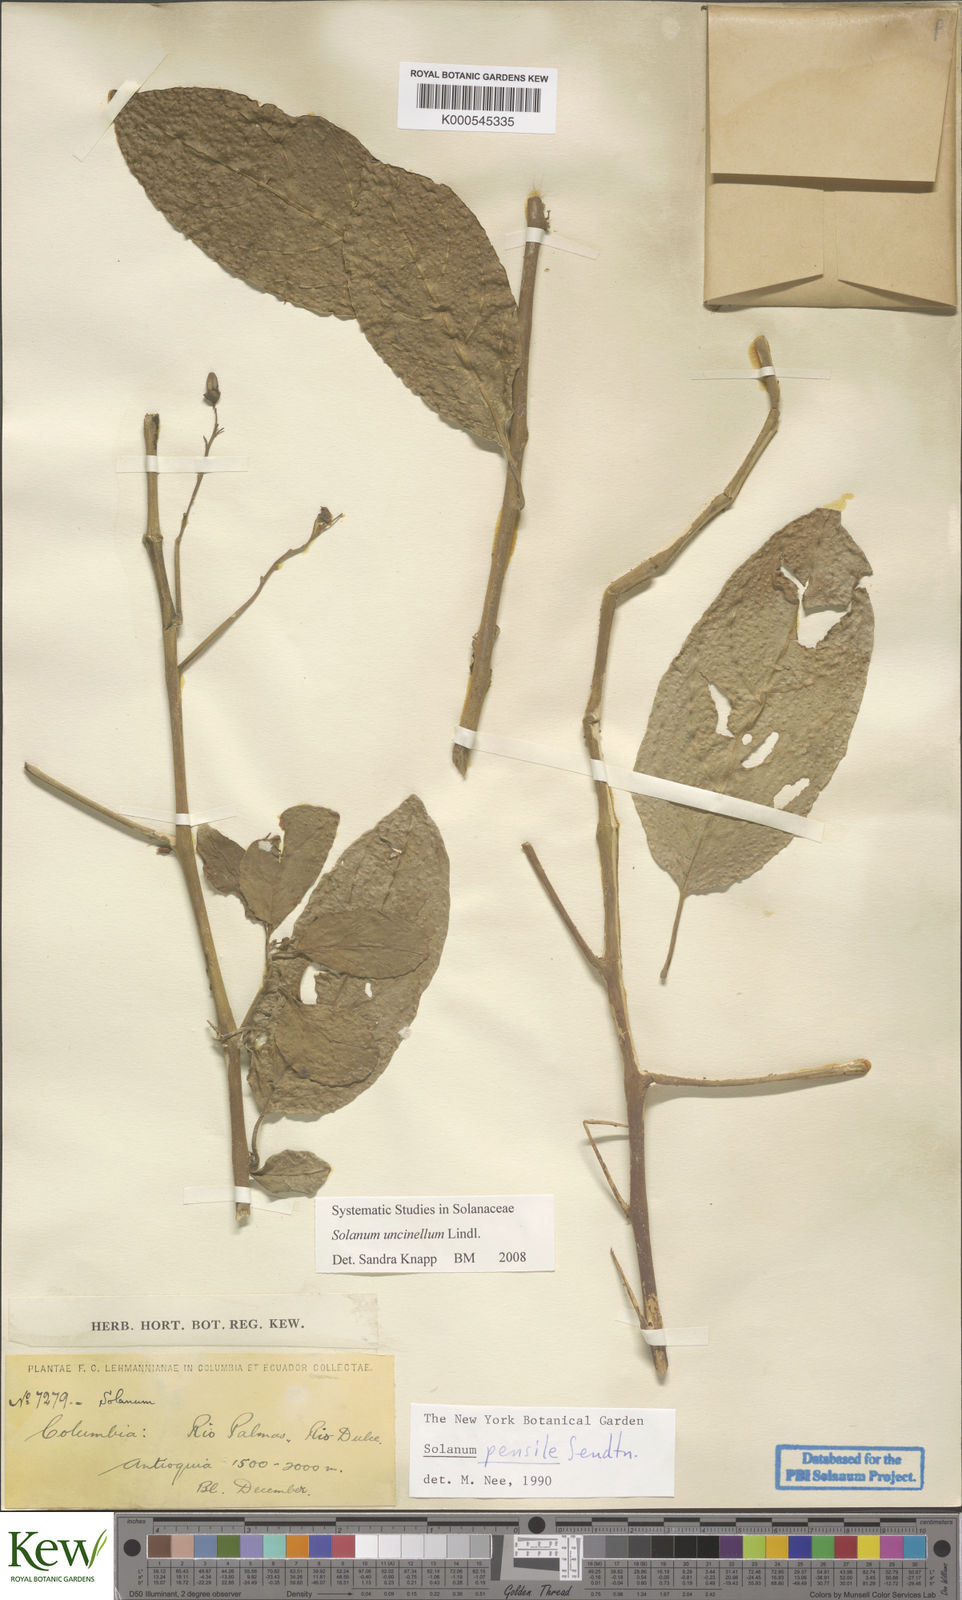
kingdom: Plantae
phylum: Tracheophyta
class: Magnoliopsida
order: Solanales
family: Solanaceae
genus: Solanum
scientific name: Solanum uncinellum
